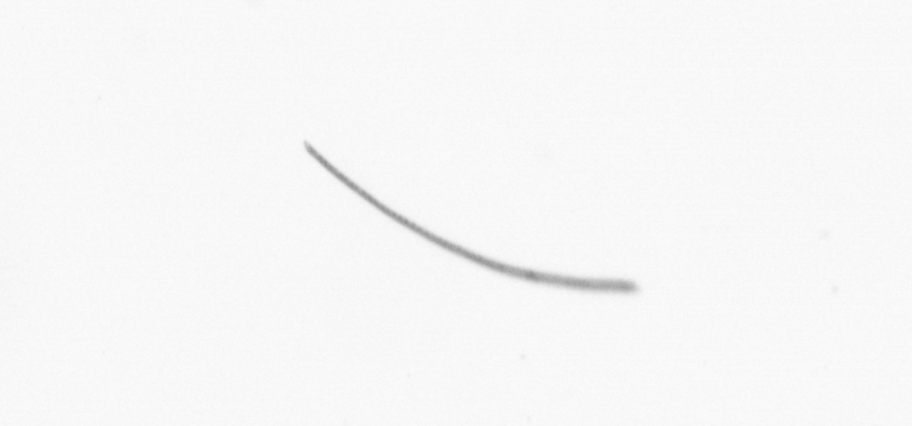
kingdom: Chromista
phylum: Ochrophyta
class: Bacillariophyceae
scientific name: Bacillariophyceae
